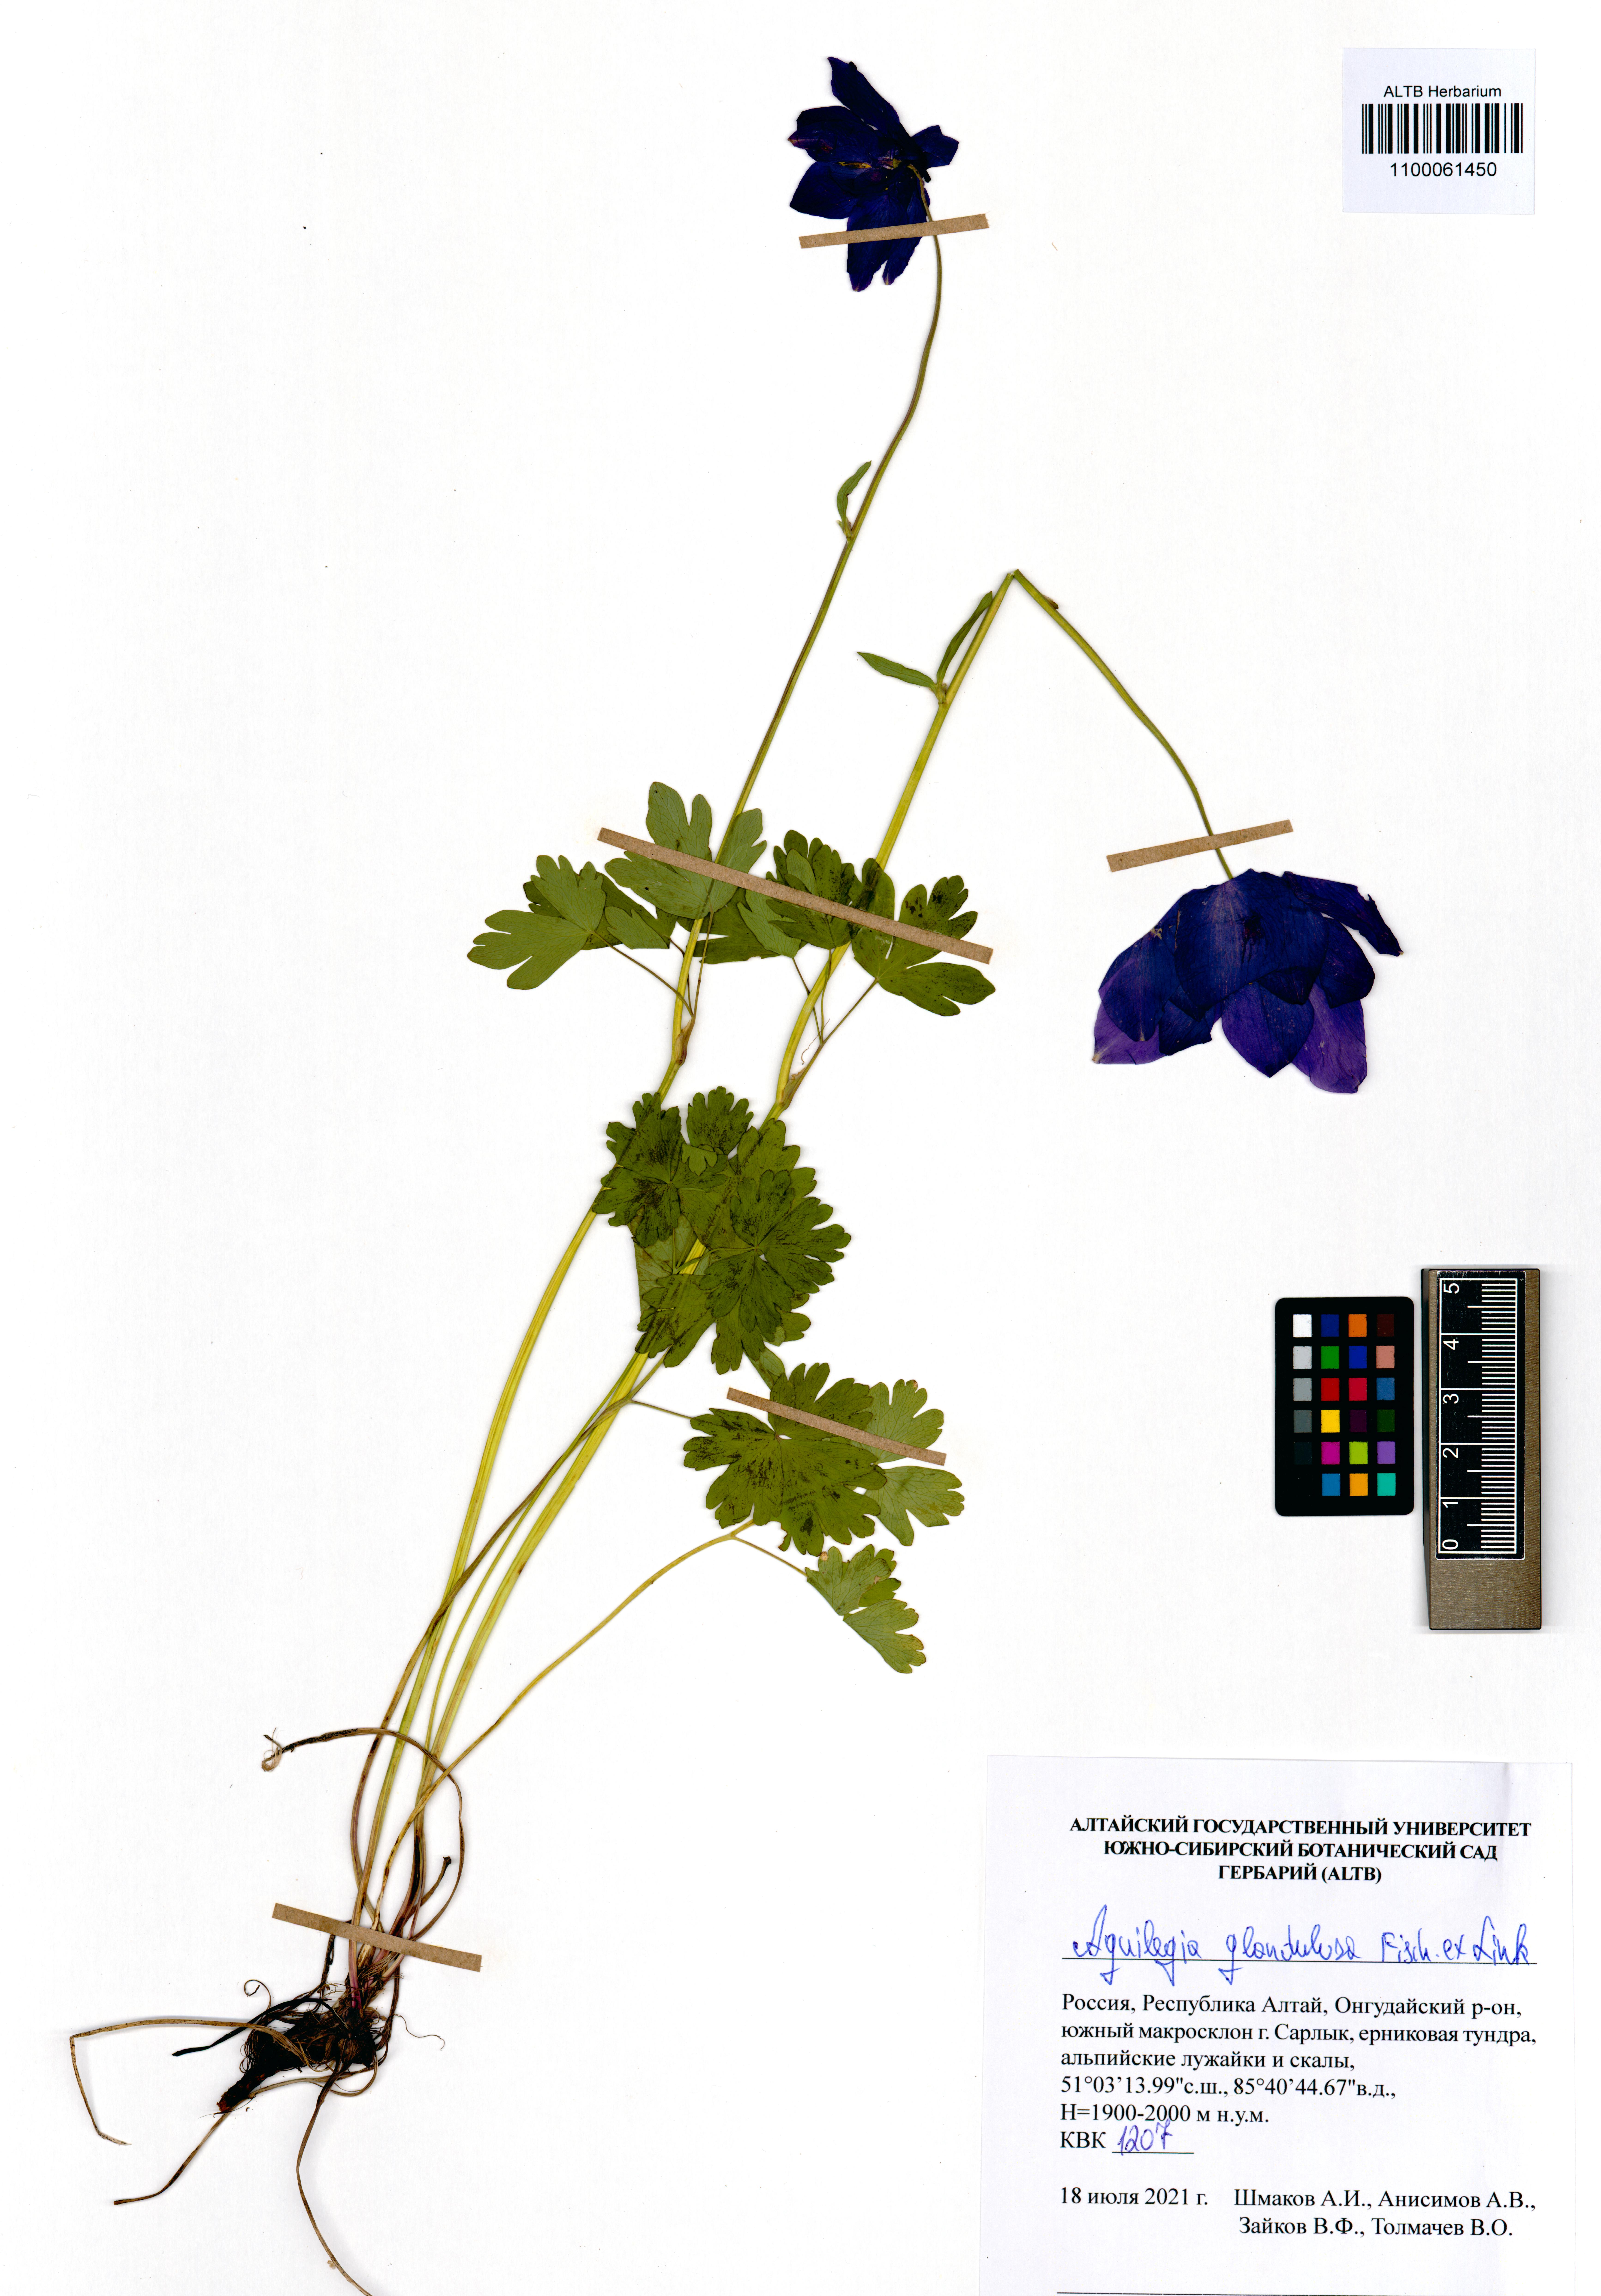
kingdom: Plantae
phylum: Tracheophyta
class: Magnoliopsida
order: Ranunculales
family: Ranunculaceae
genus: Aquilegia
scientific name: Aquilegia glandulosa
